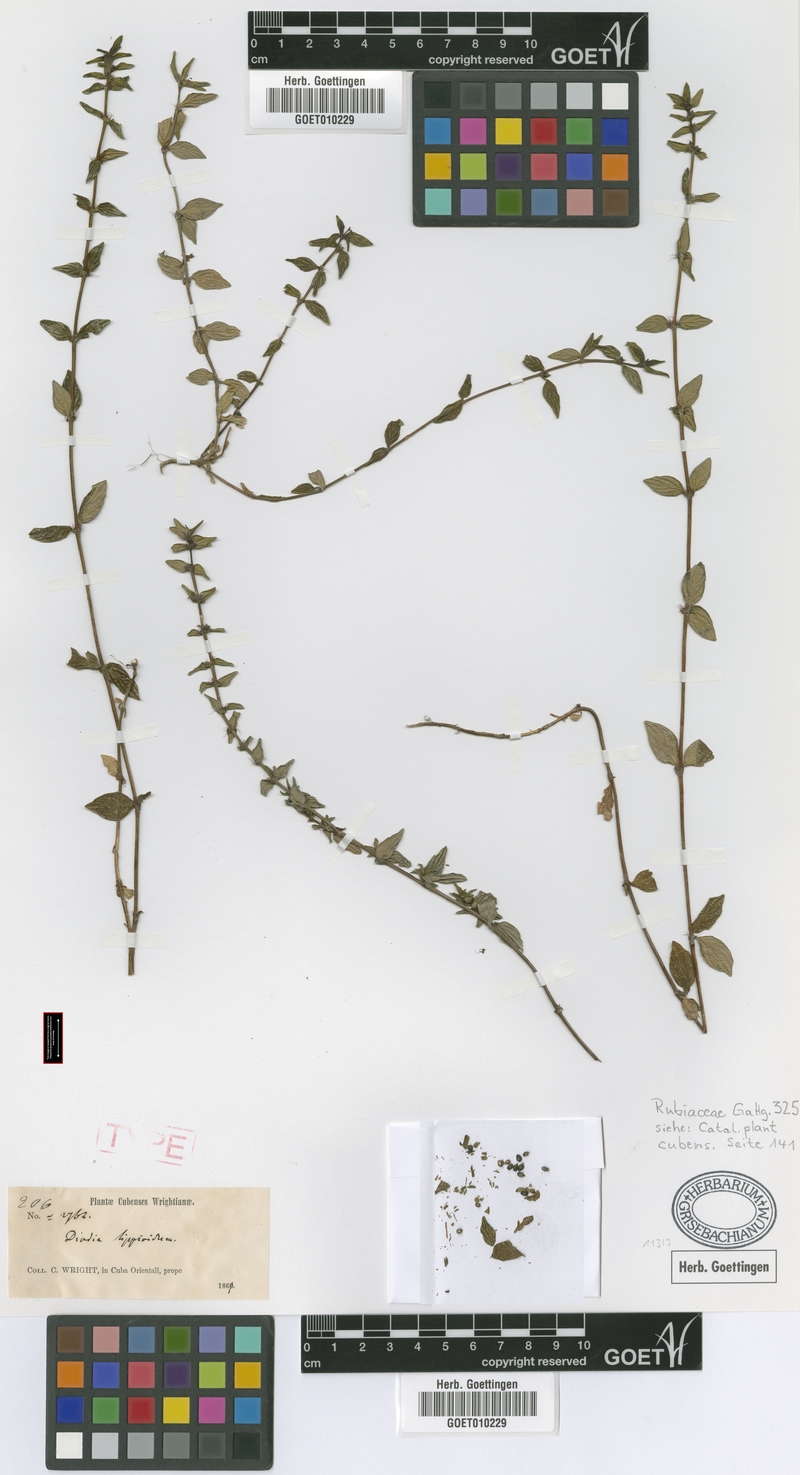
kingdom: Plantae
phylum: Tracheophyta
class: Magnoliopsida
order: Gentianales
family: Rubiaceae
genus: Hexasepalum
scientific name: Hexasepalum lippioides
